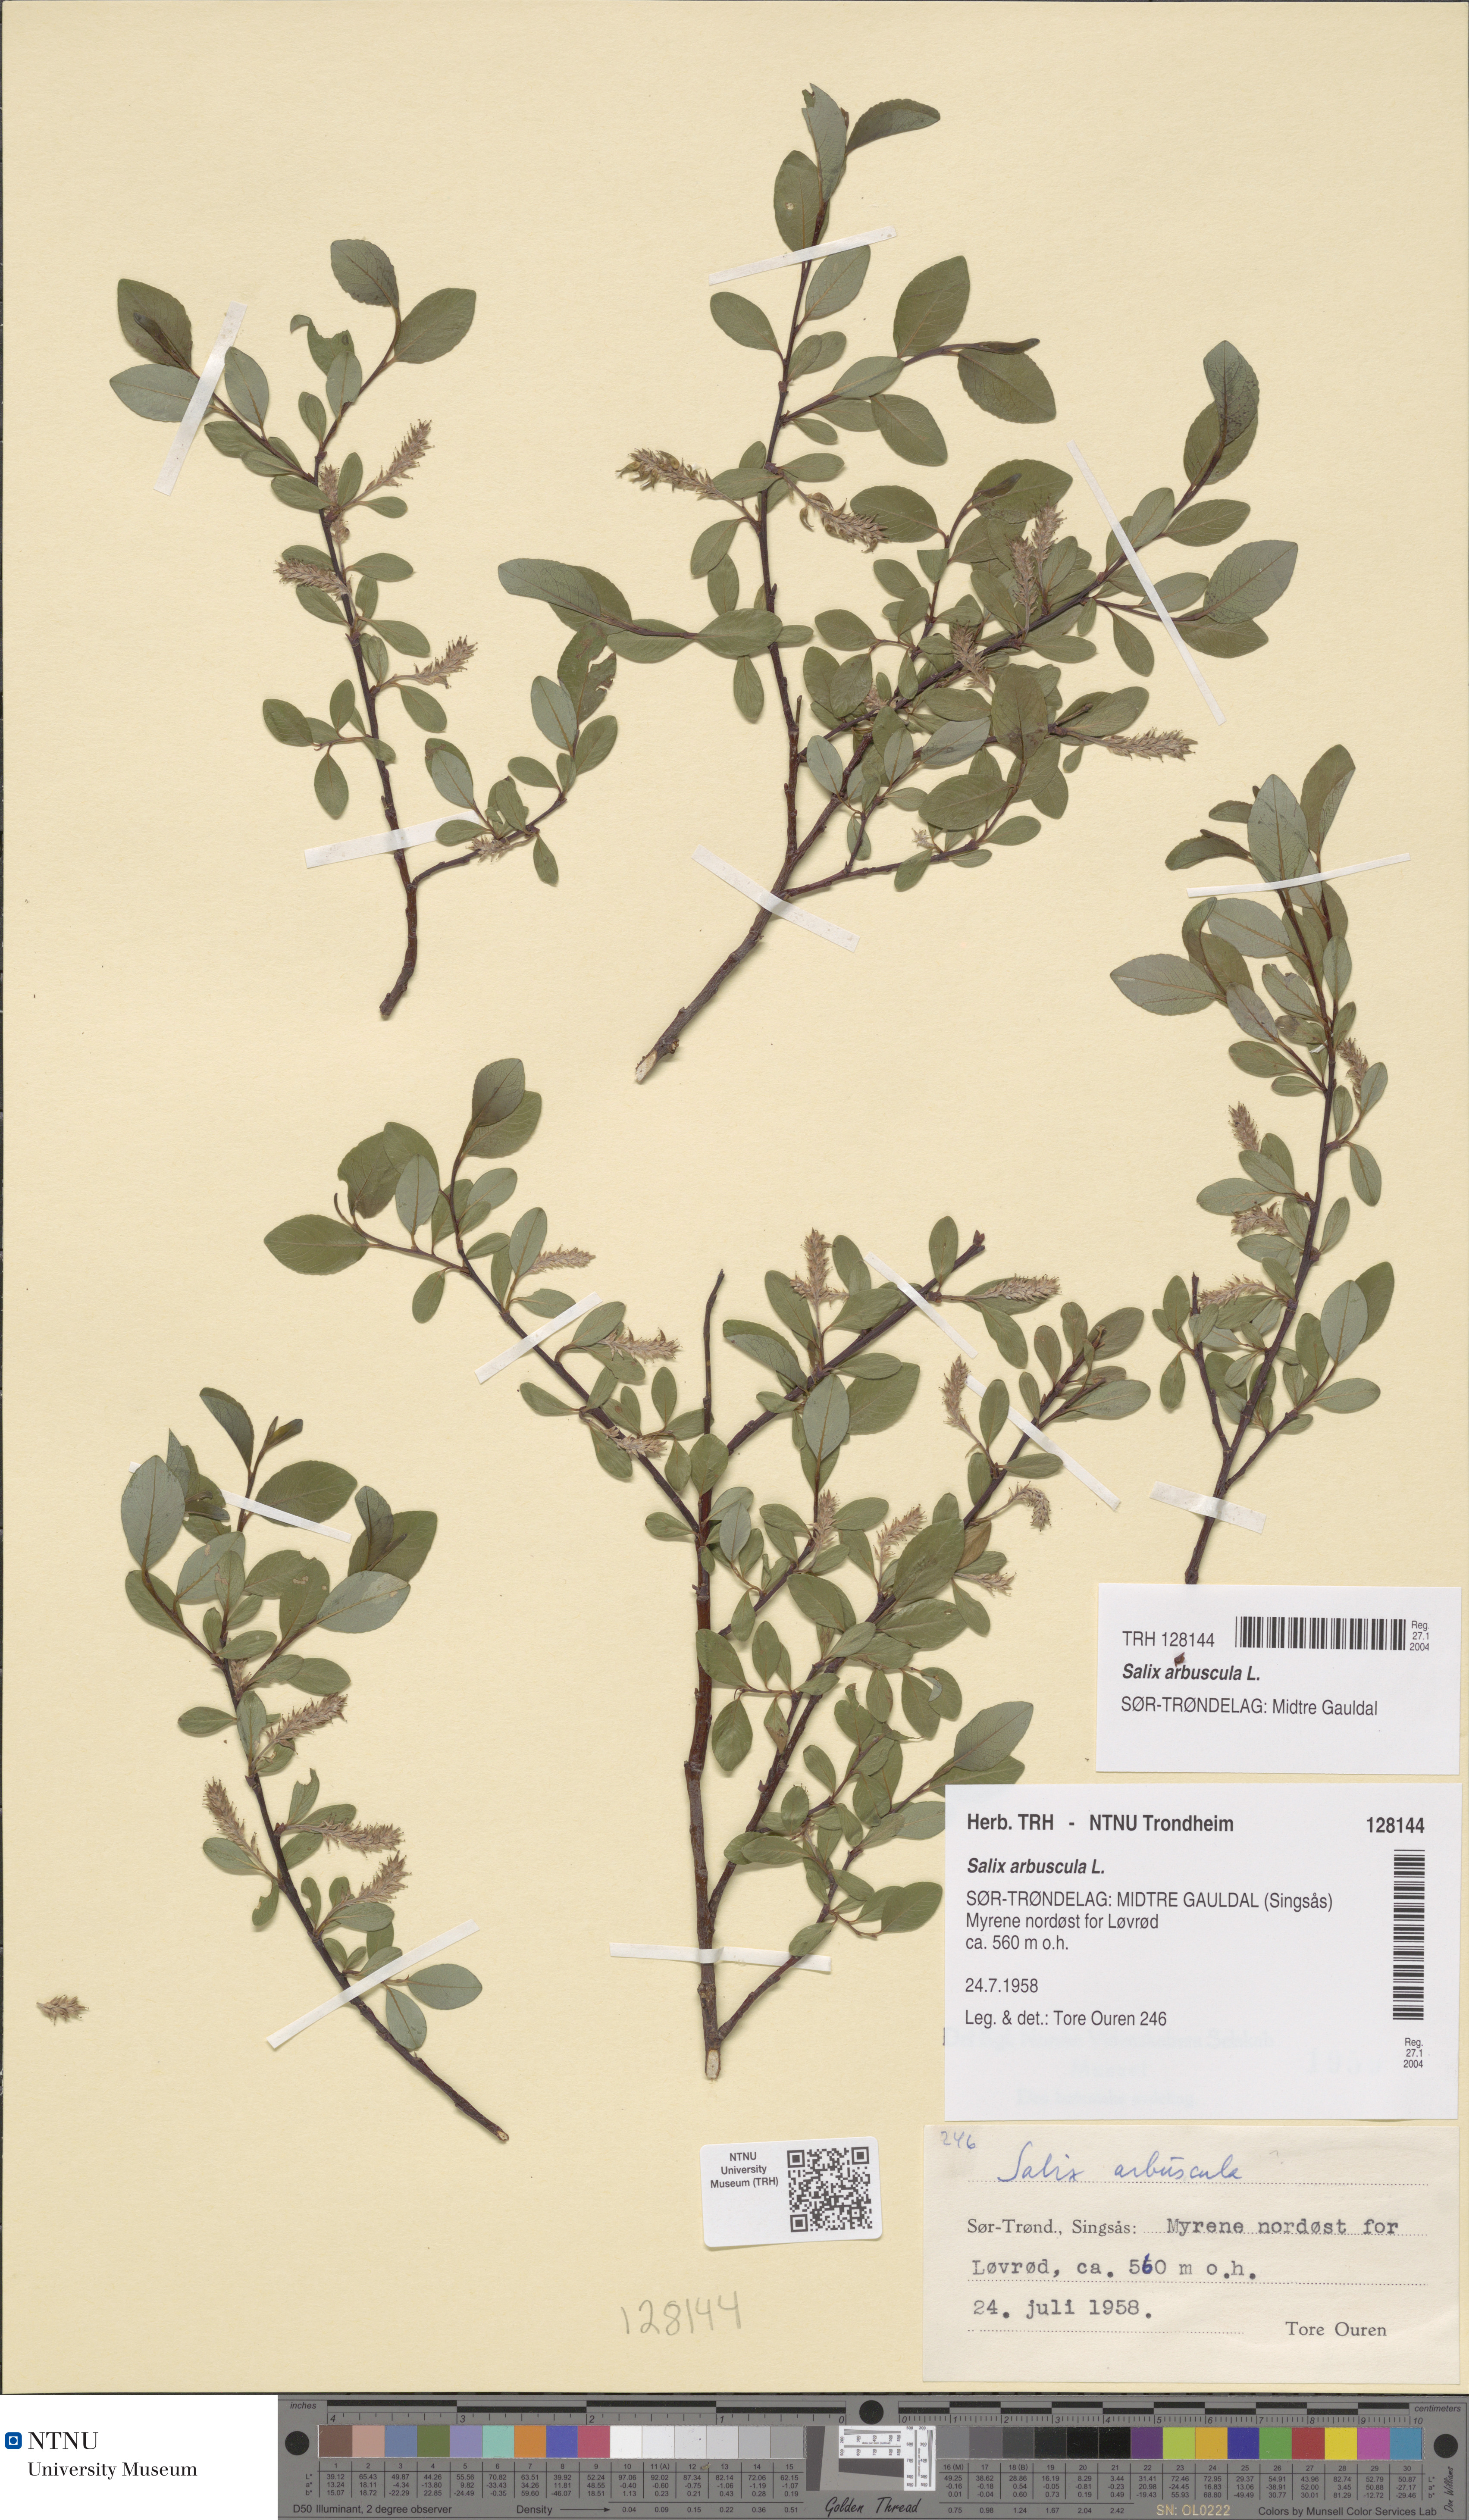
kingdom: Plantae
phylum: Tracheophyta
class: Magnoliopsida
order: Malpighiales
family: Salicaceae
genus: Salix
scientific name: Salix arbuscula
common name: Mountain willow
